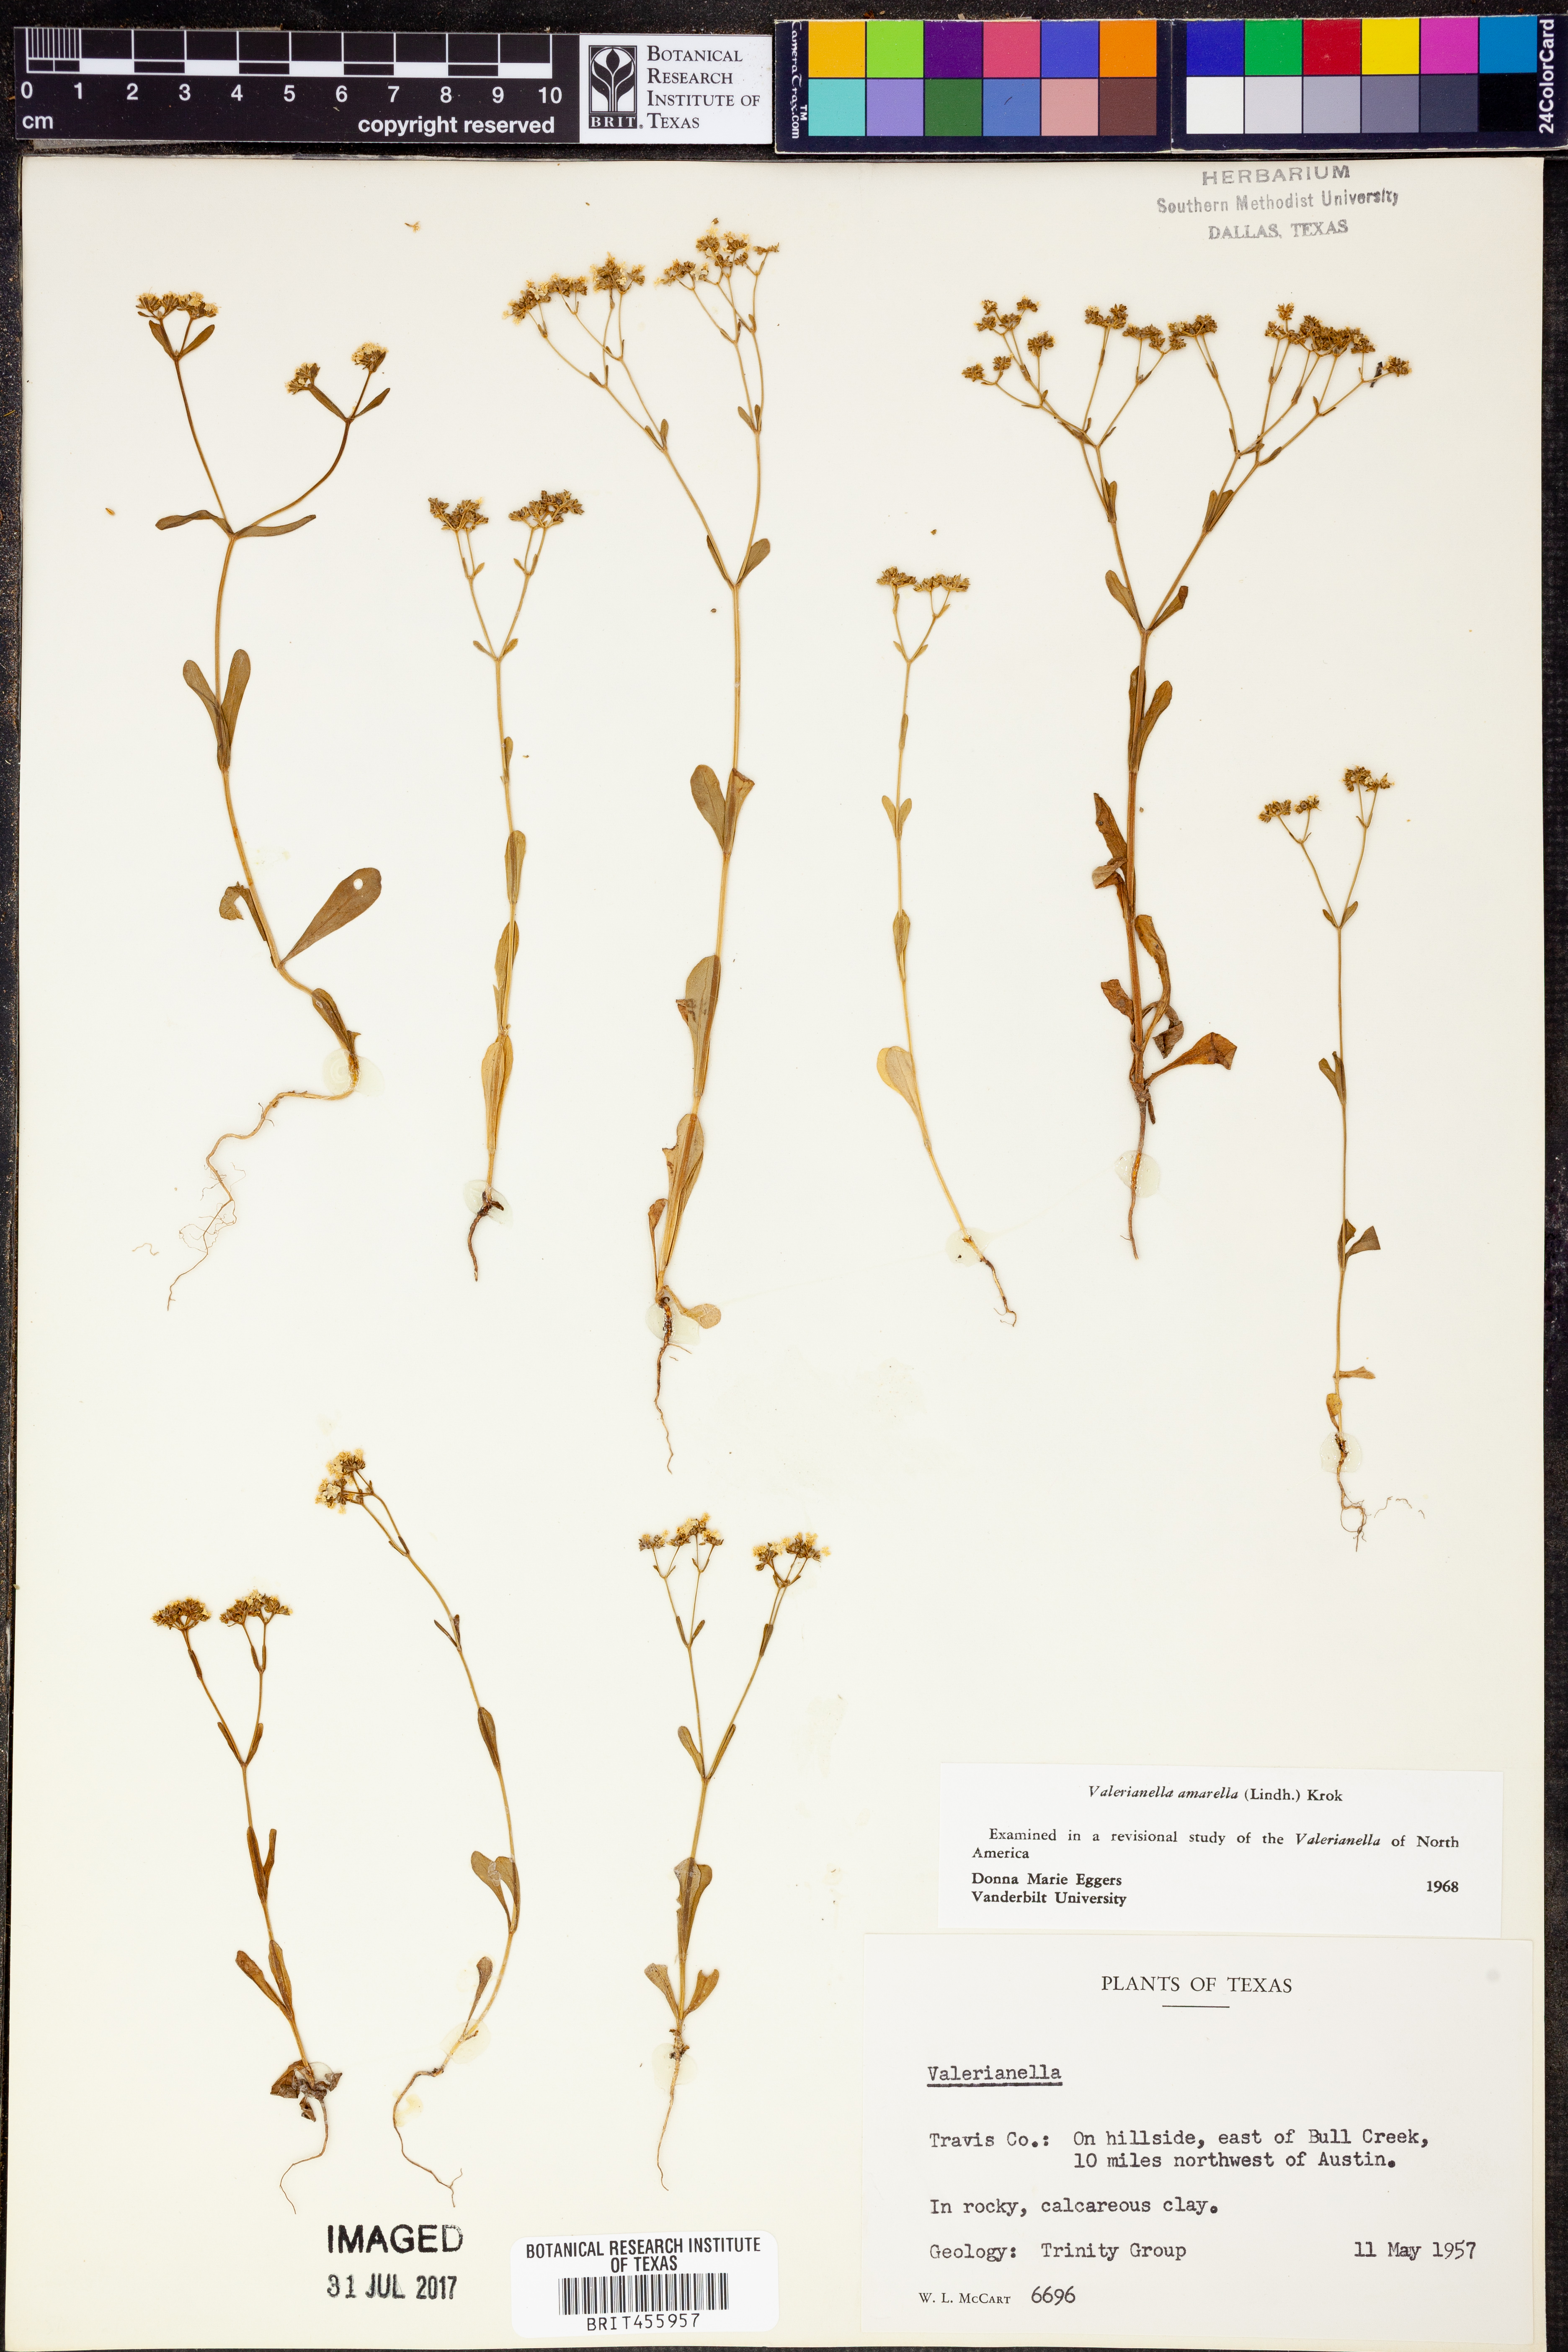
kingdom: Plantae
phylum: Tracheophyta
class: Magnoliopsida
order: Dipsacales
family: Caprifoliaceae
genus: Valerianella
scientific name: Valerianella amarella
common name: Hariy cornsalad
